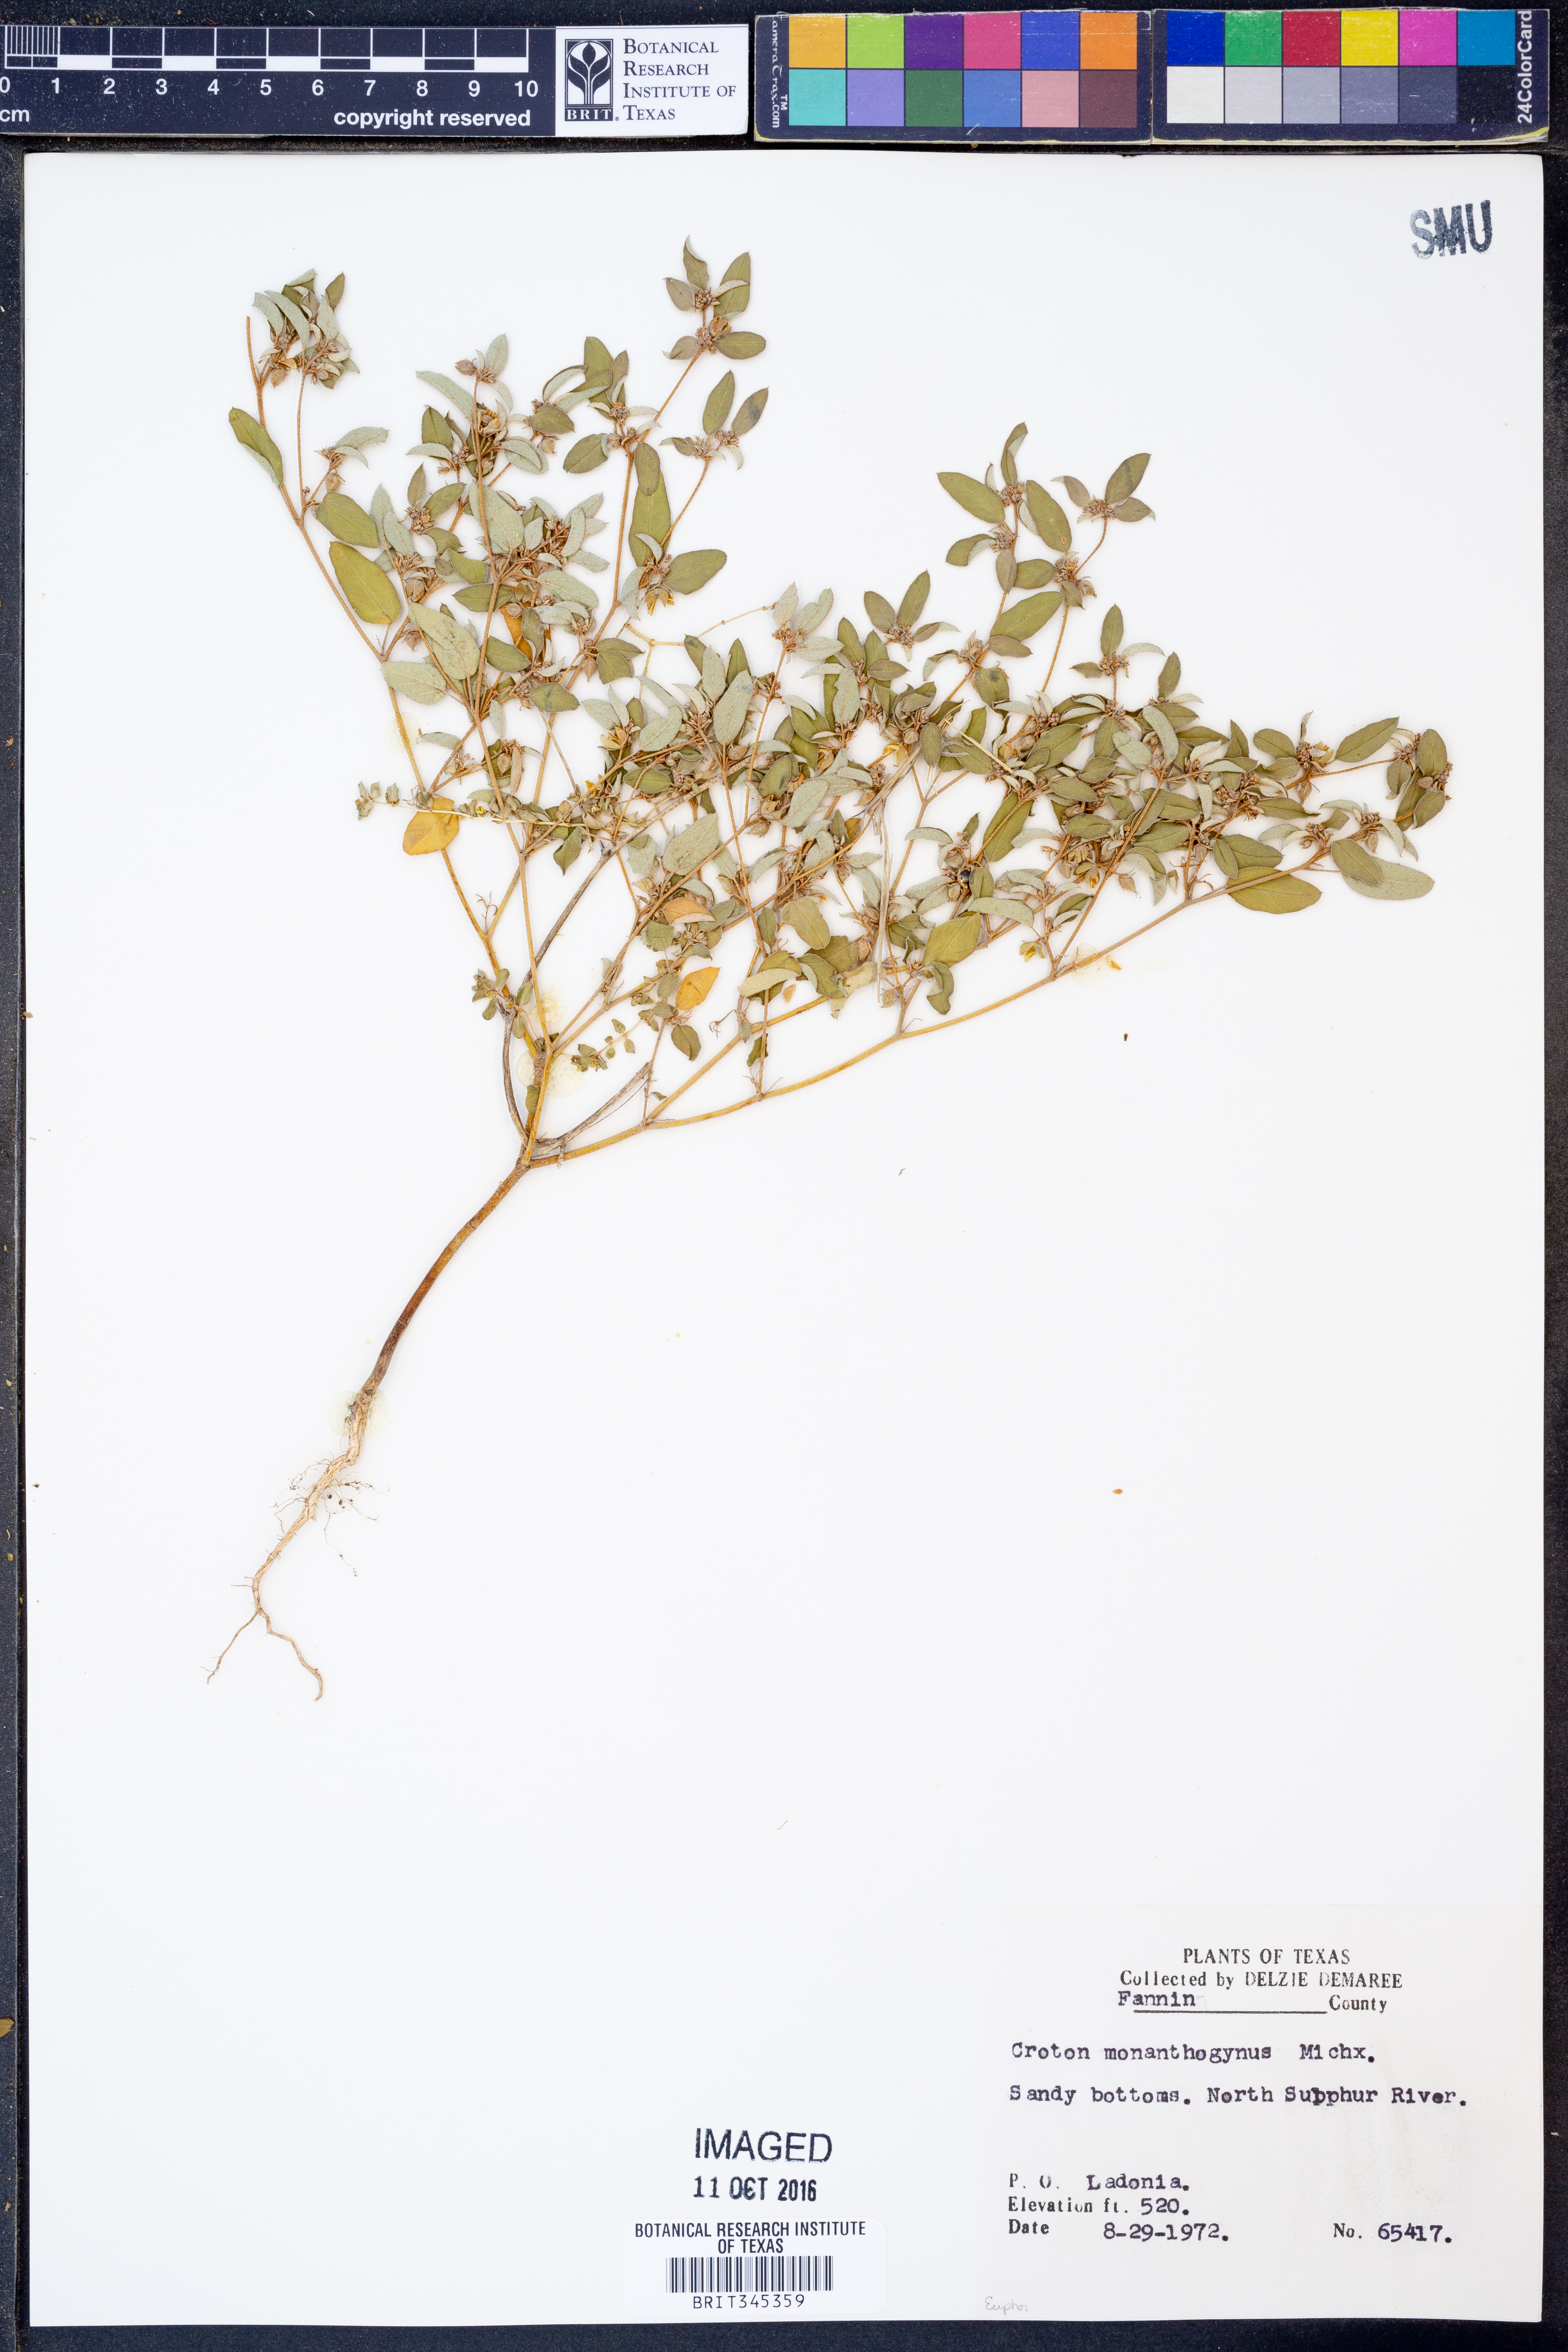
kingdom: Plantae
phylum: Tracheophyta
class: Magnoliopsida
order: Malpighiales
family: Euphorbiaceae
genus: Croton
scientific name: Croton monanthogynus
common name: One-seed croton
